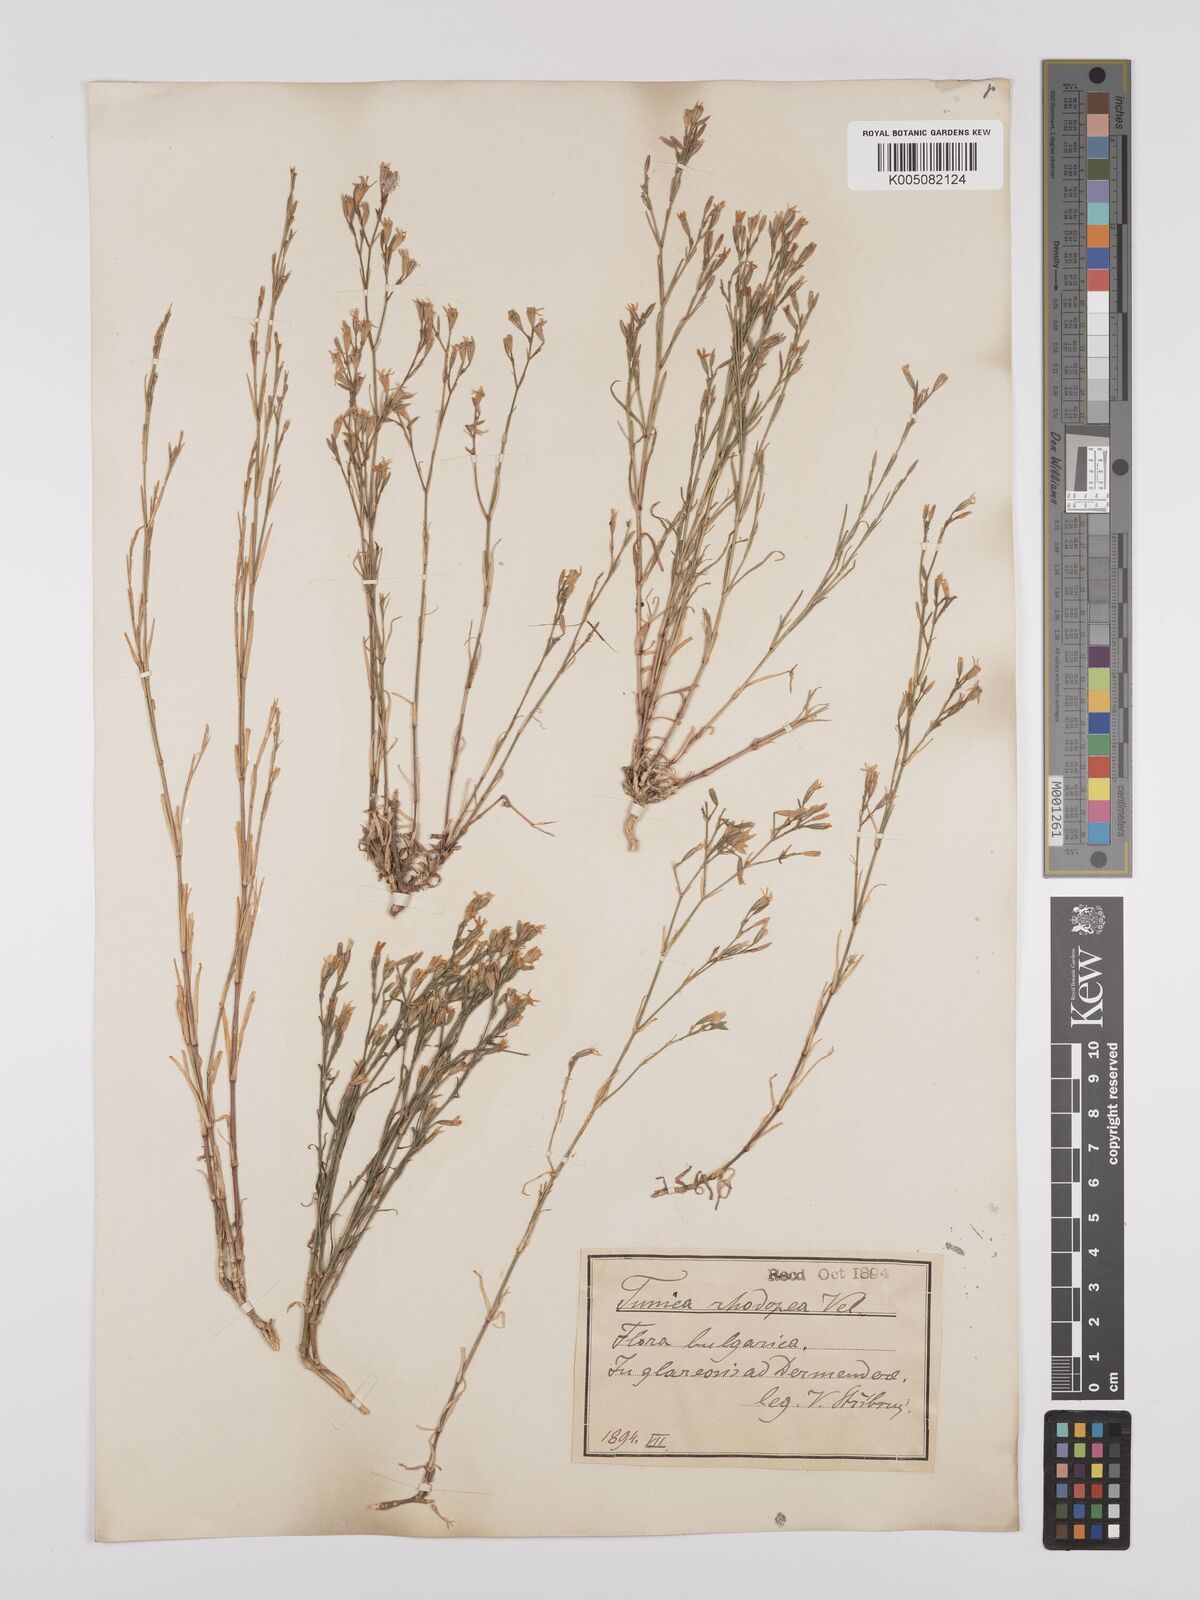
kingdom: Plantae
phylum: Tracheophyta
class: Magnoliopsida
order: Caryophyllales
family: Caryophyllaceae
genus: Dianthus
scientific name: Dianthus illyricus
